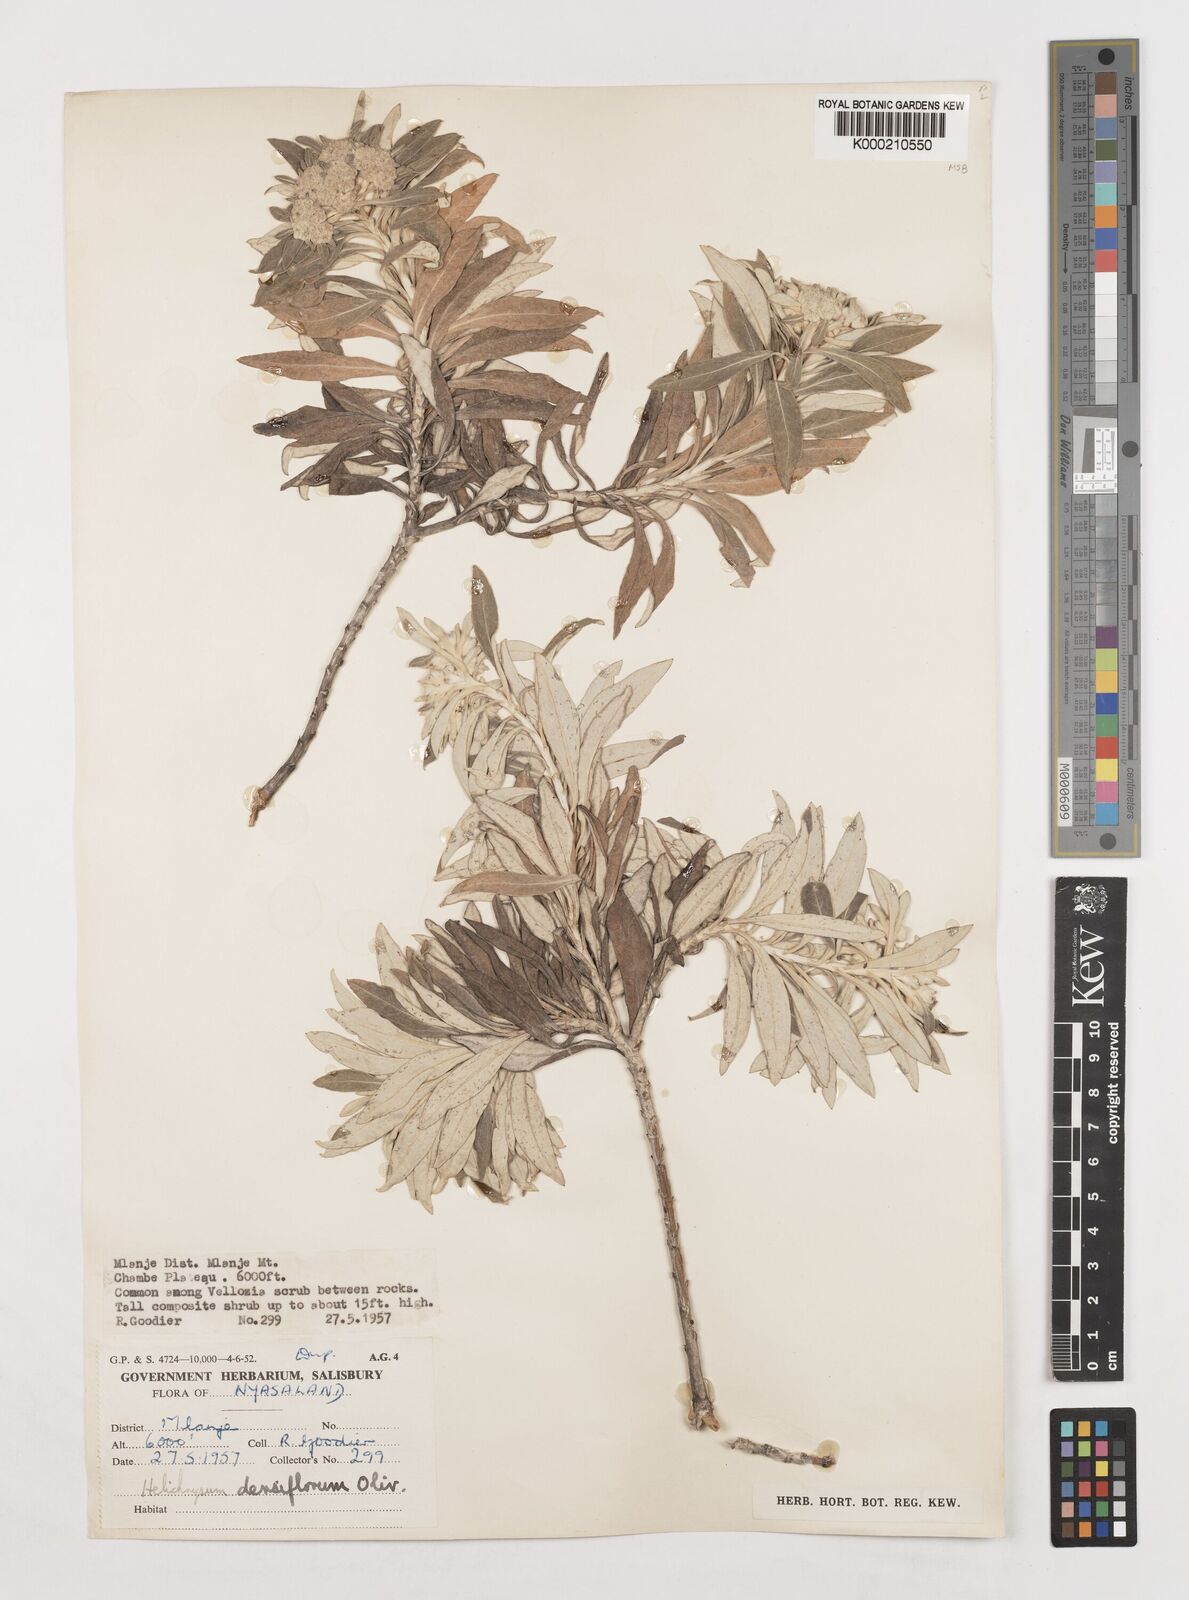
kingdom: Plantae
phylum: Tracheophyta
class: Magnoliopsida
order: Asterales
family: Asteraceae
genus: Helichrysum
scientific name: Helichrysum densiflorum
